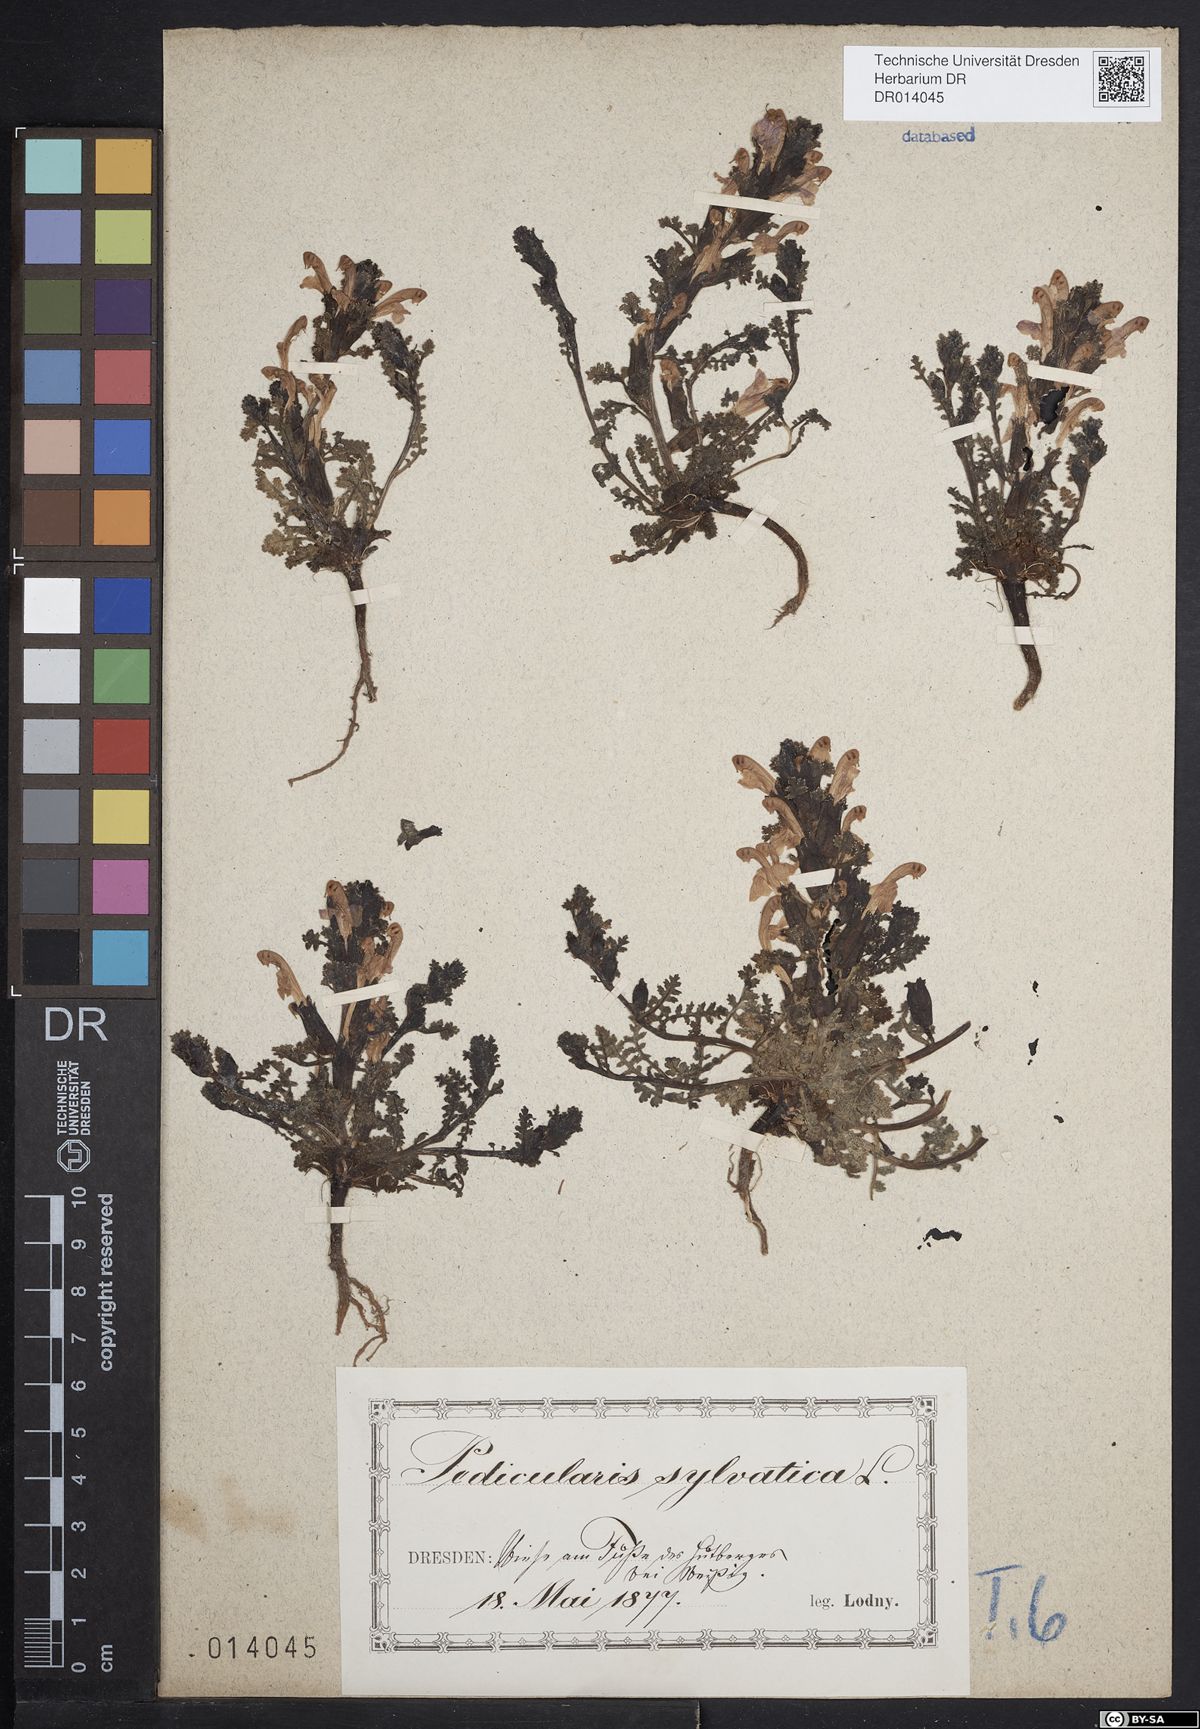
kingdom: Plantae
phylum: Tracheophyta
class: Magnoliopsida
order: Lamiales
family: Orobanchaceae
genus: Pedicularis
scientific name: Pedicularis sylvatica
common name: Lousewort
